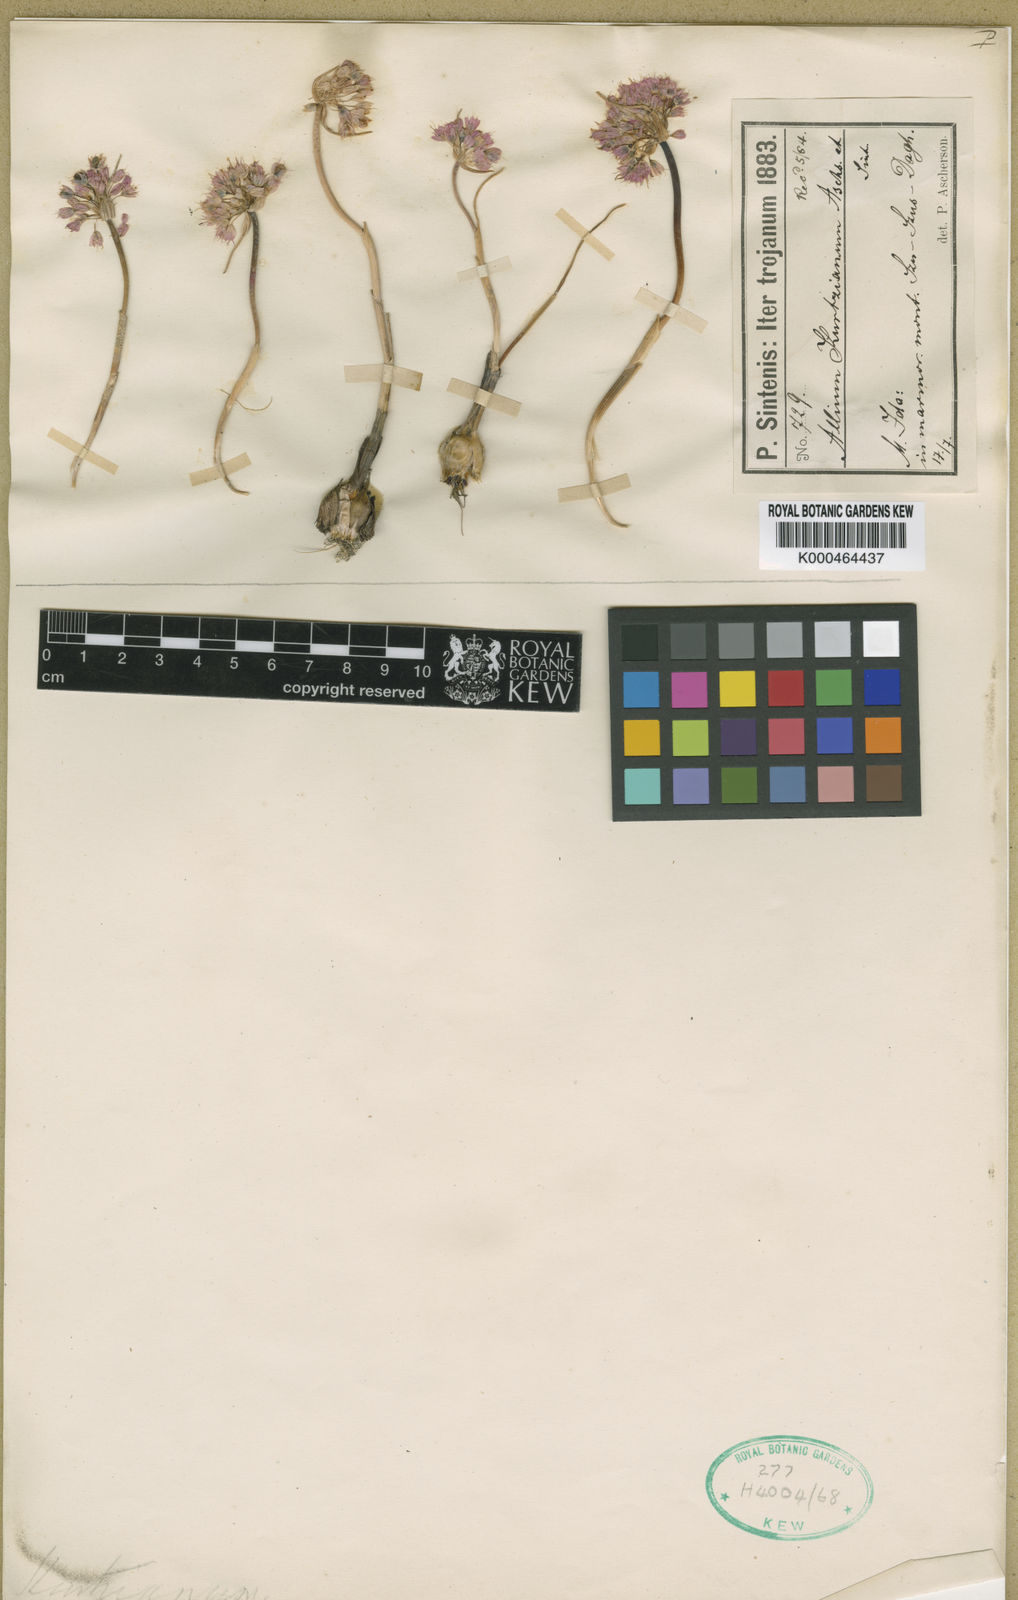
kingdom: Plantae
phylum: Tracheophyta
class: Liliopsida
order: Asparagales
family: Amaryllidaceae
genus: Allium
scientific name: Allium kurtzianum
